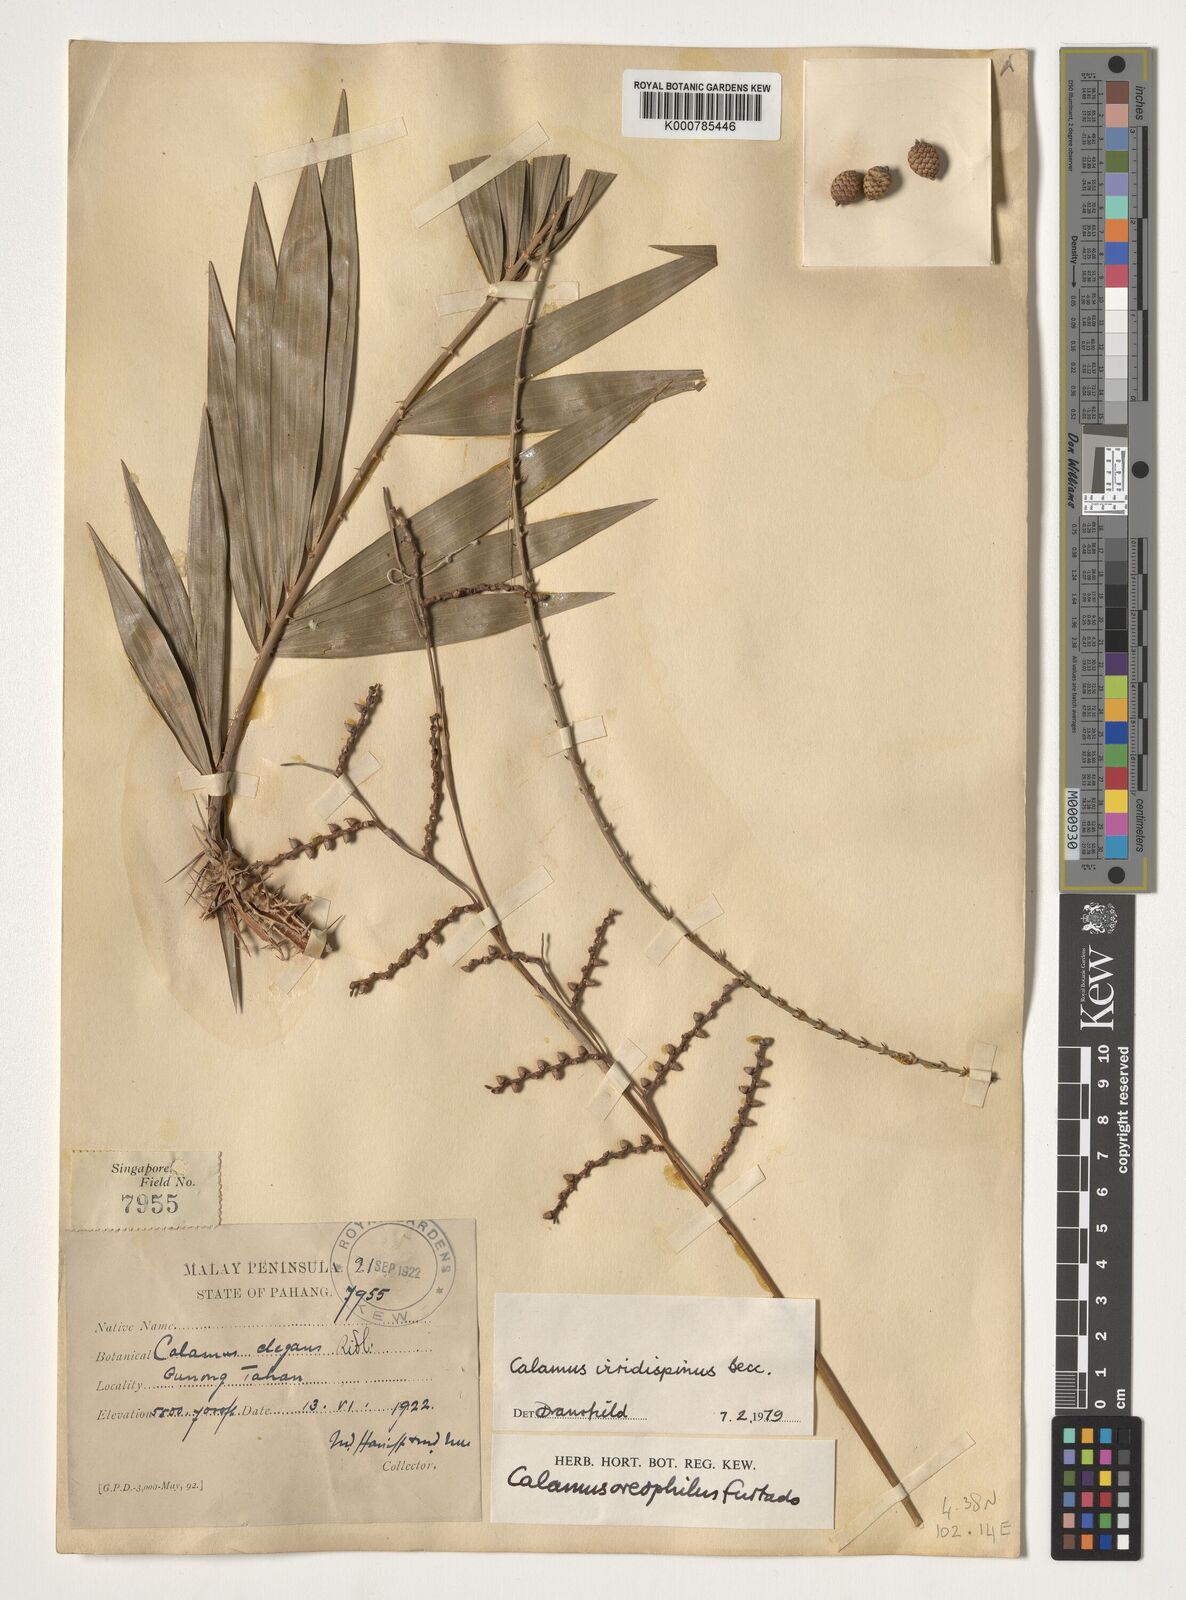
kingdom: Plantae
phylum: Tracheophyta
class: Liliopsida
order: Arecales
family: Arecaceae
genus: Calamus
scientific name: Calamus helferianus
